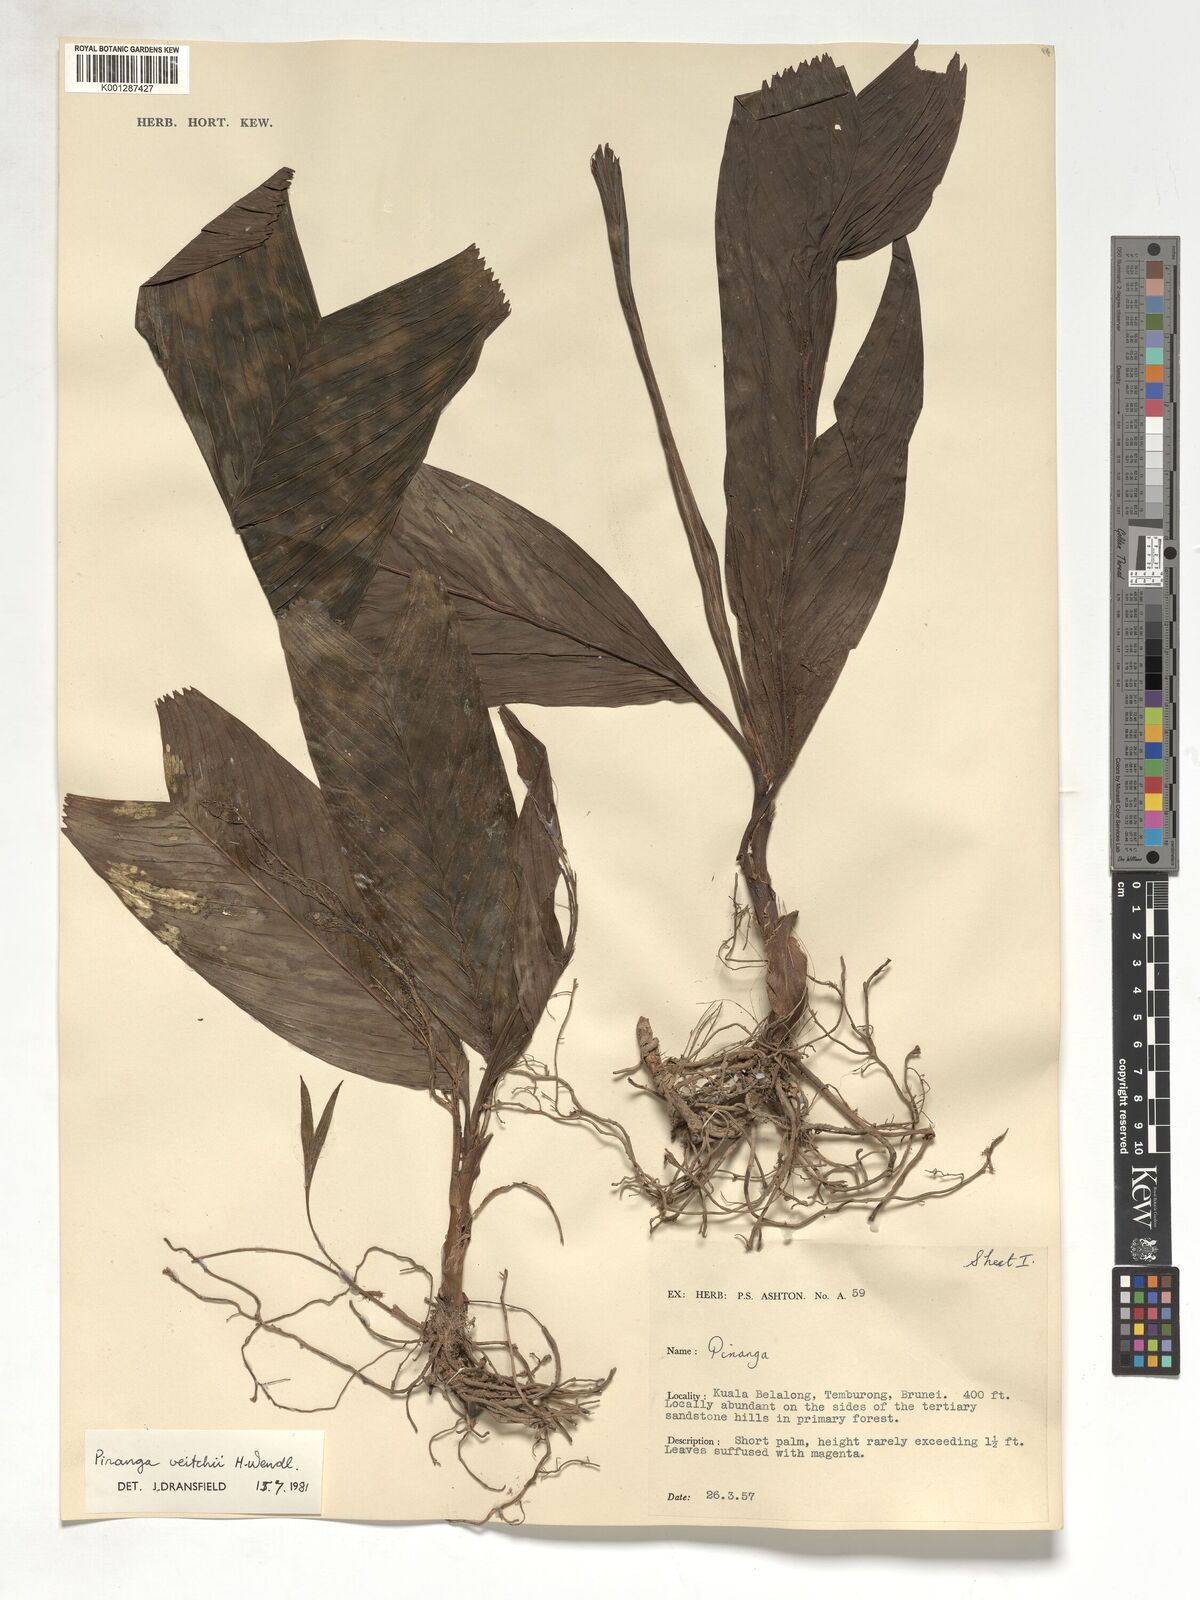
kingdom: Plantae
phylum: Tracheophyta
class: Liliopsida
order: Arecales
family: Arecaceae
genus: Pinanga
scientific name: Pinanga veitchii
